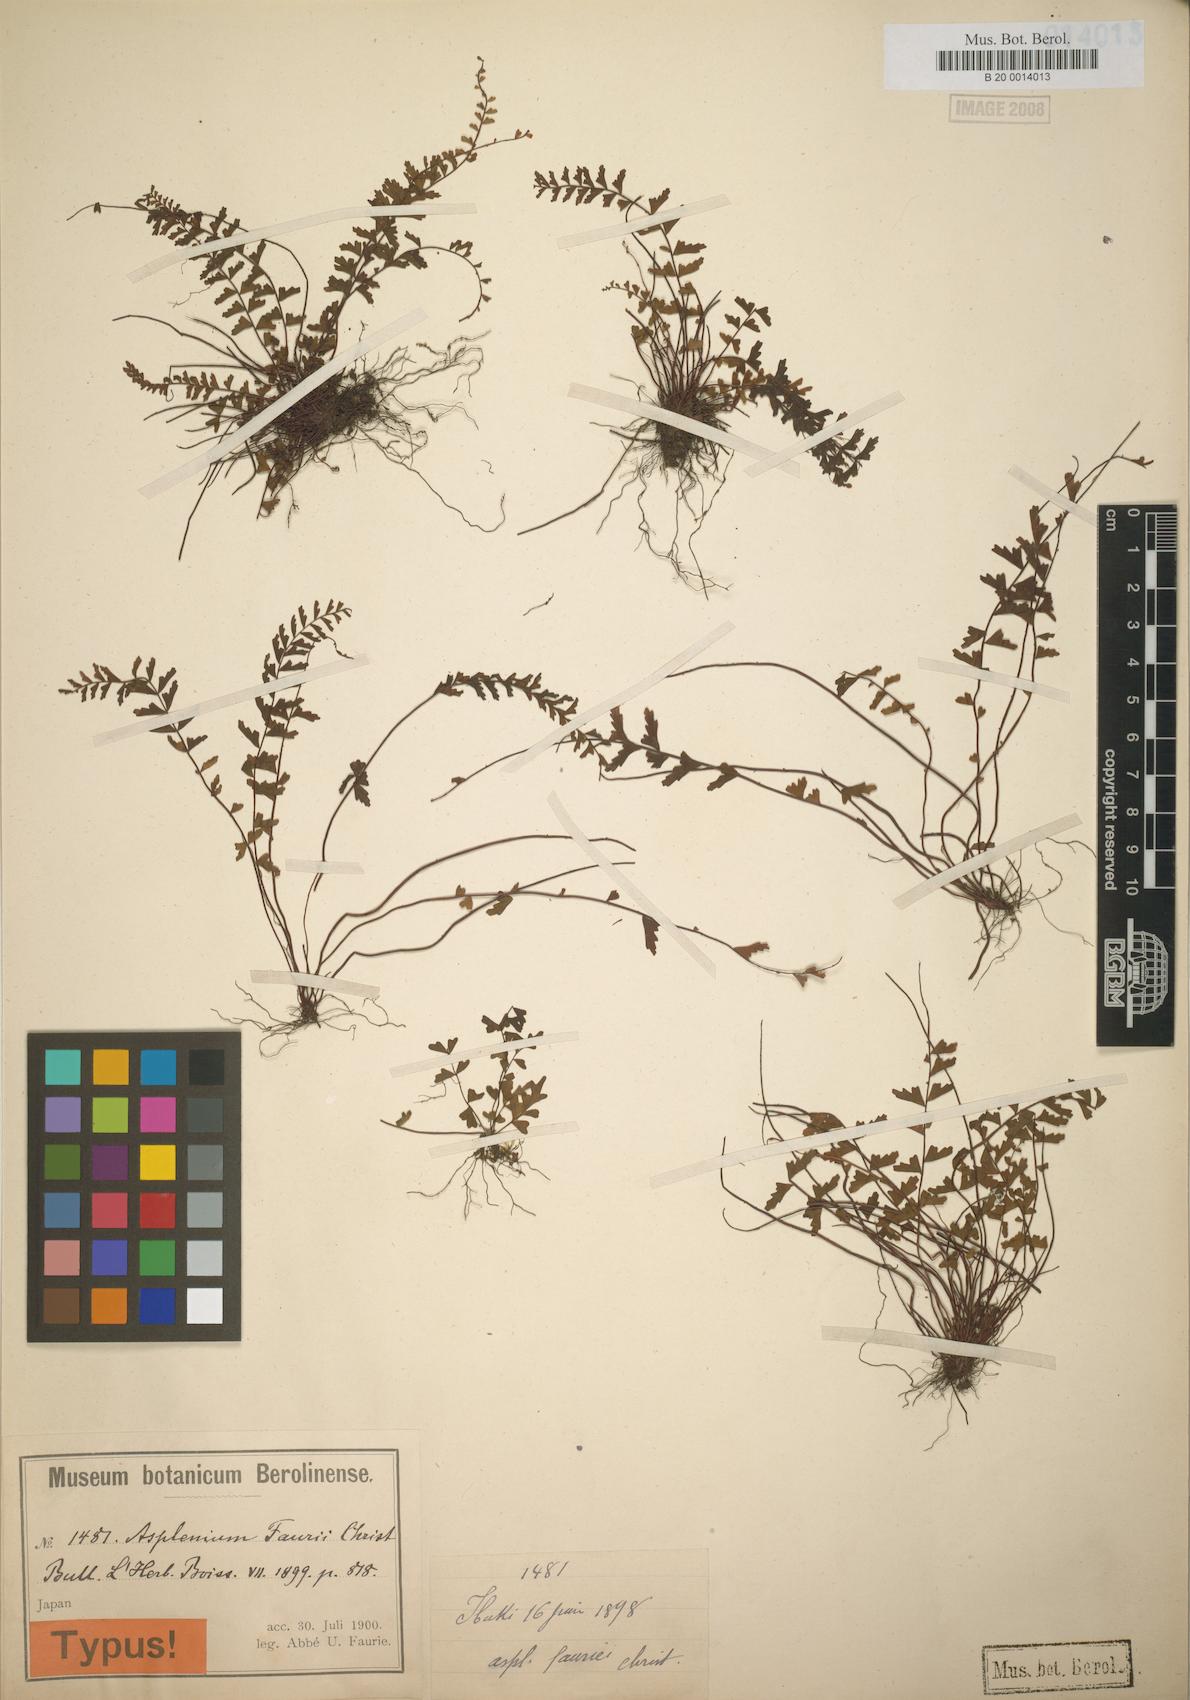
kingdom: Plantae
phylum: Tracheophyta
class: Polypodiopsida
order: Polypodiales
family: Aspleniaceae
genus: Asplenium
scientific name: Asplenium oligophlebium
